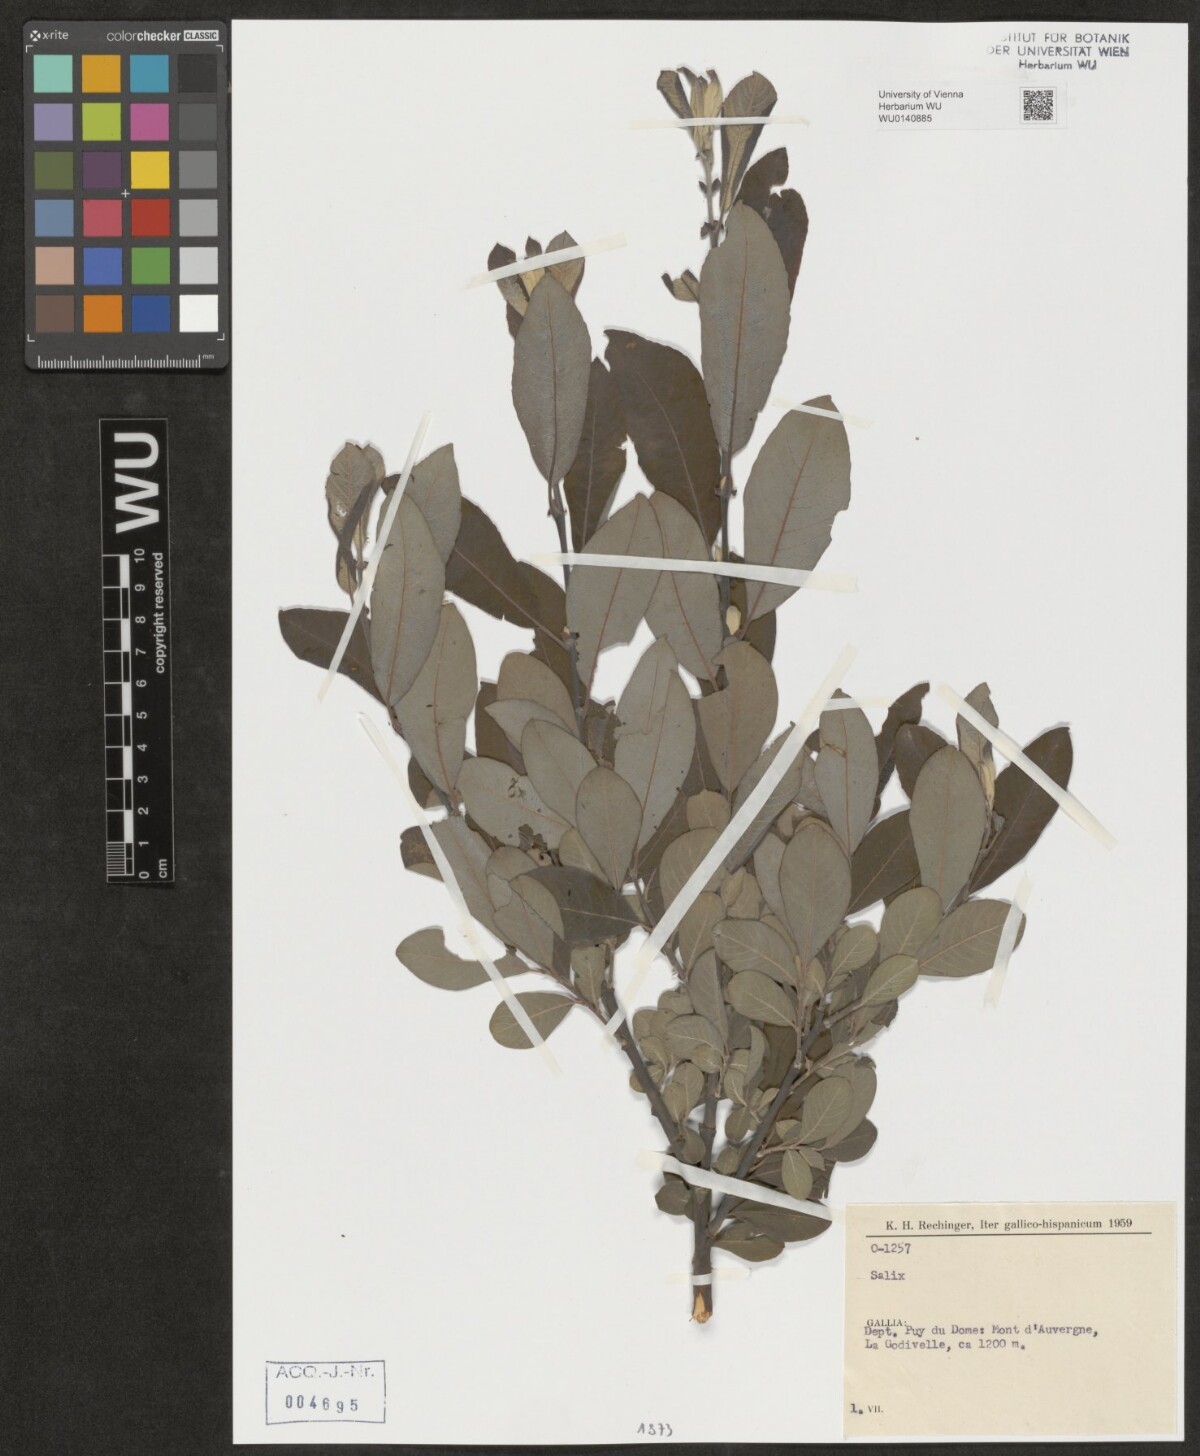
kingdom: Plantae
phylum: Tracheophyta
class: Magnoliopsida
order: Malpighiales
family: Salicaceae
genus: Salix
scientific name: Salix
